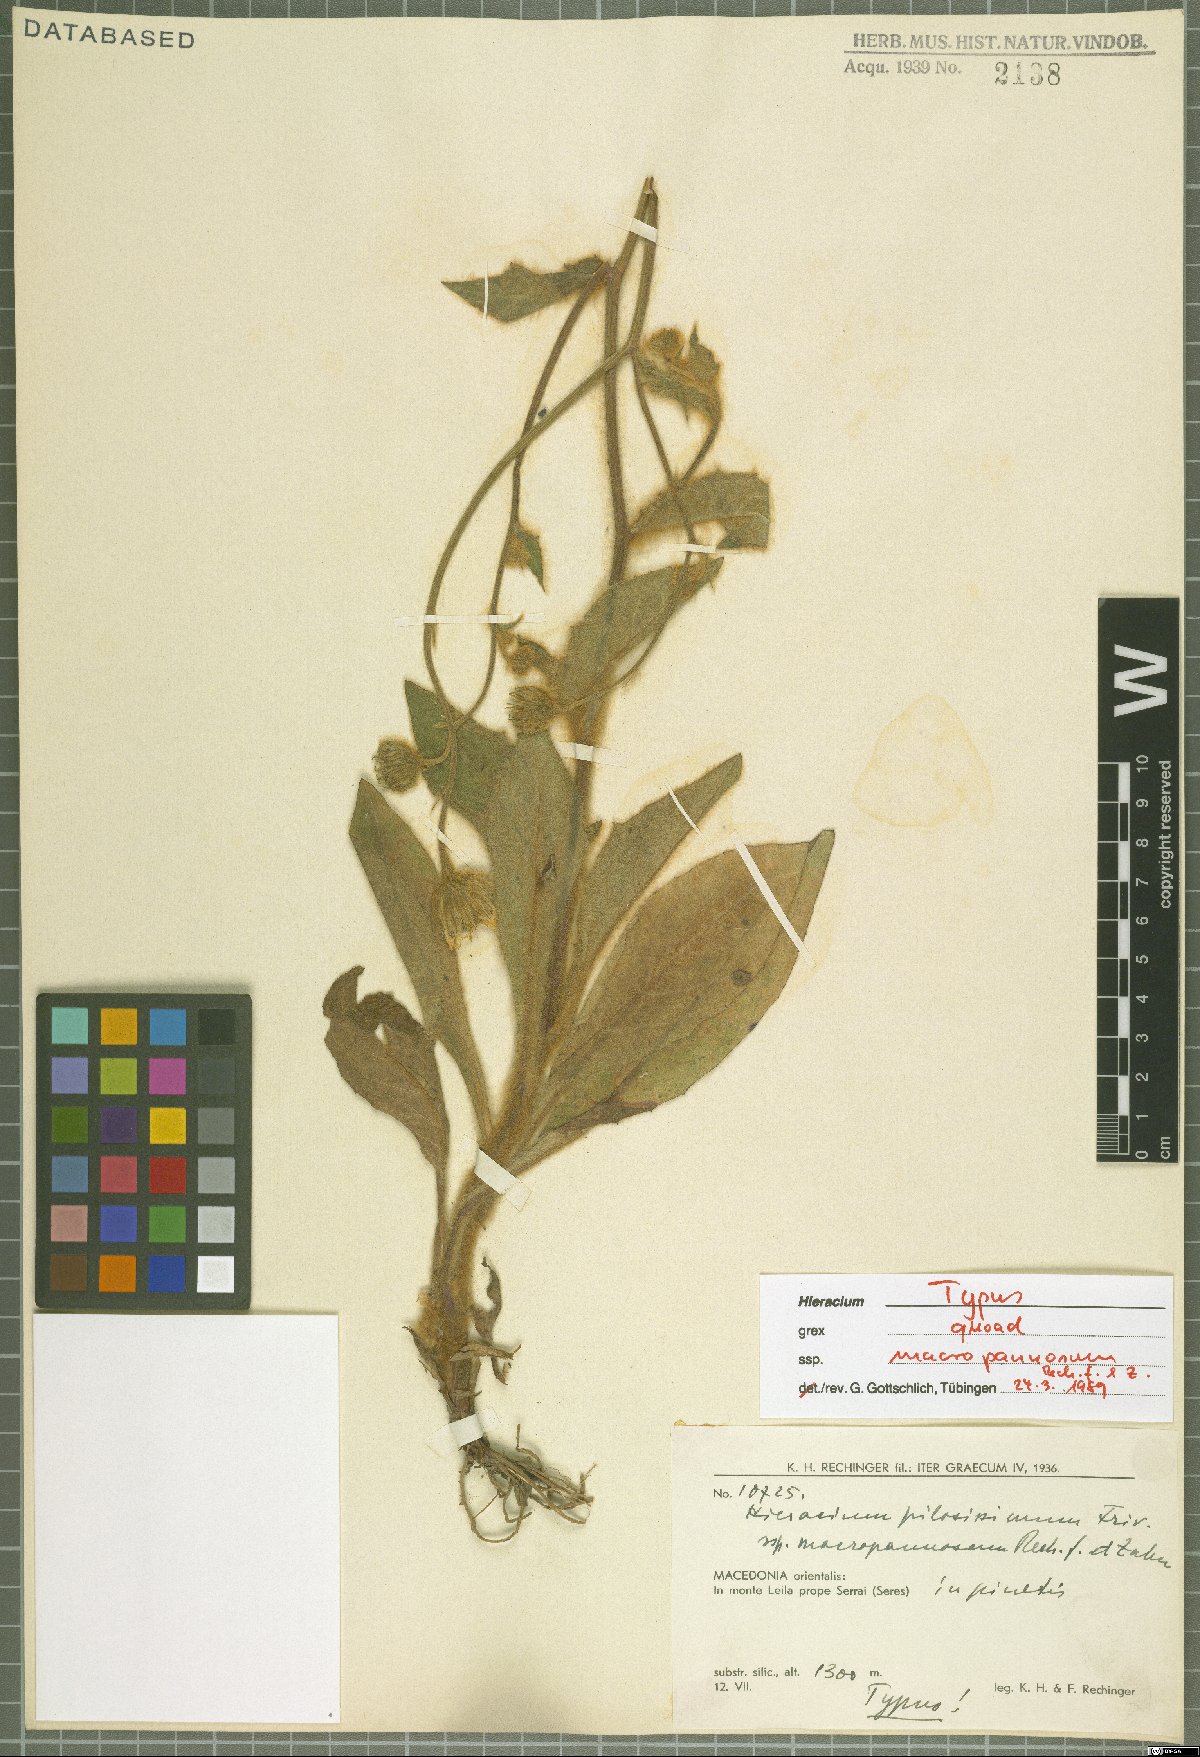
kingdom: Plantae
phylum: Tracheophyta
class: Magnoliopsida
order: Asterales
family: Asteraceae
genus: Hieracium
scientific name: Hieracium pilosissimum
